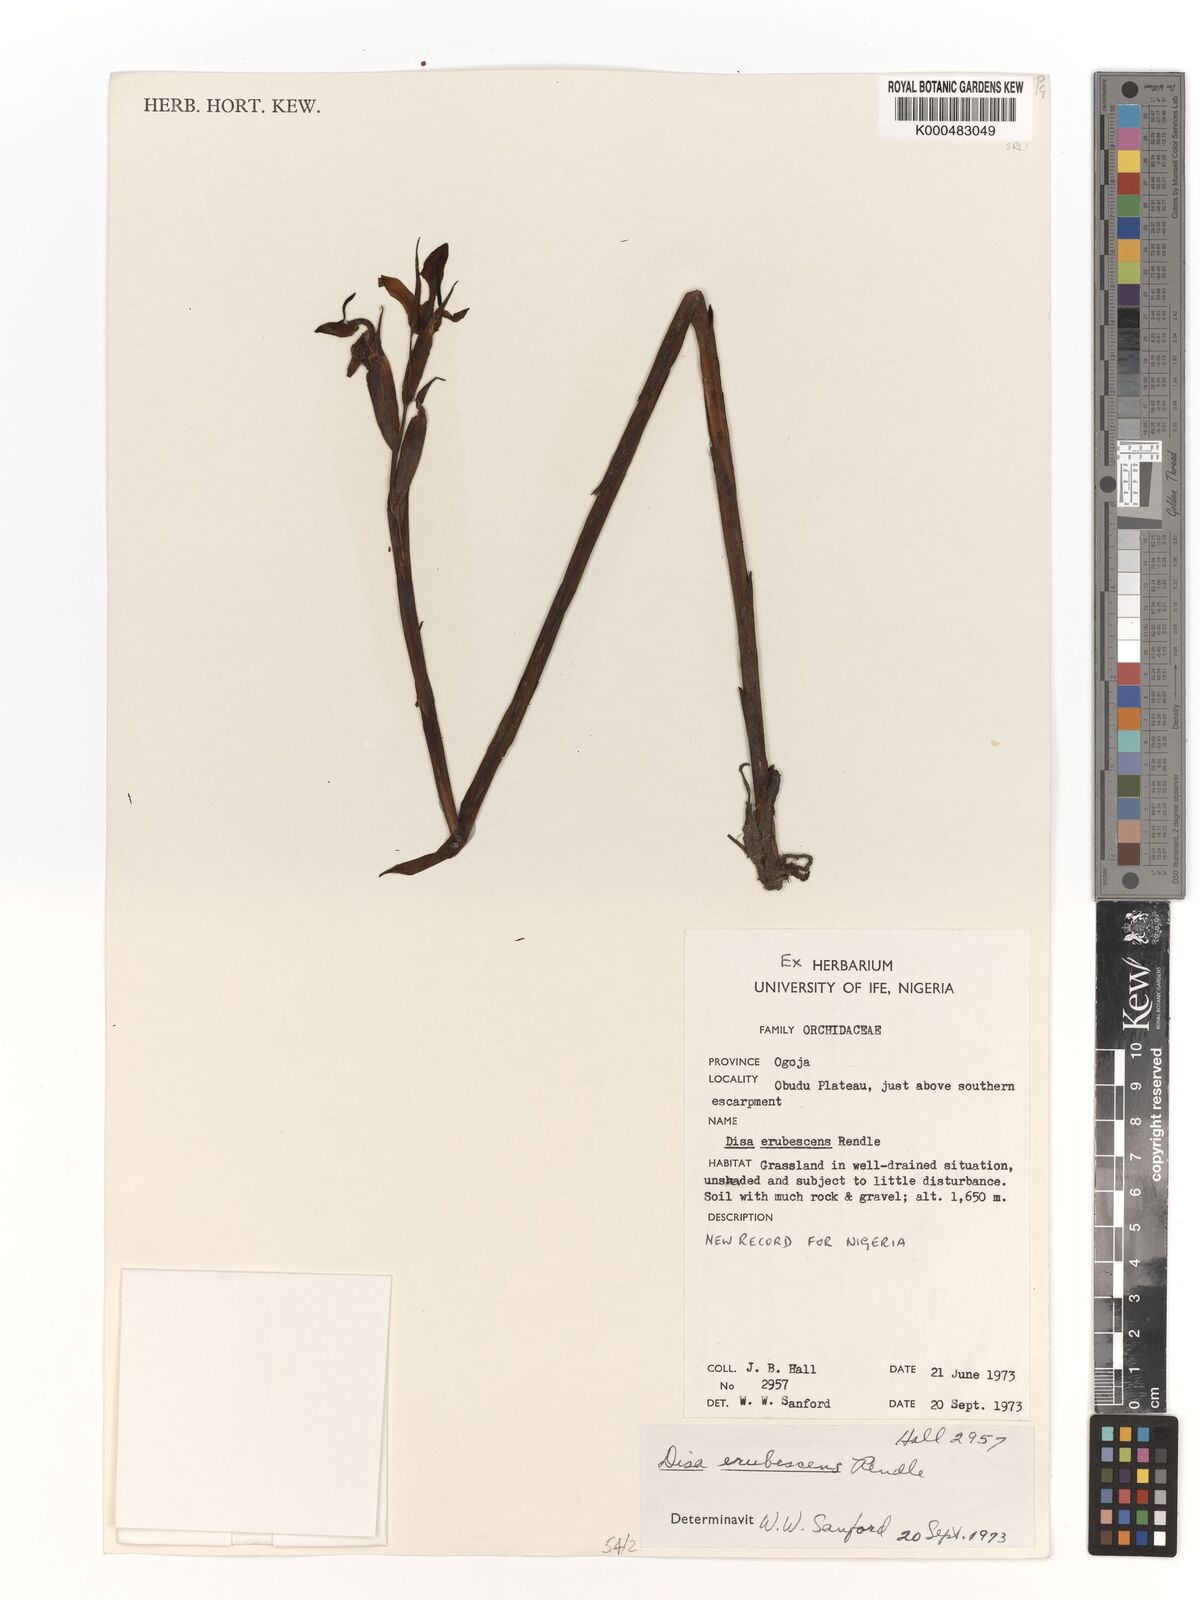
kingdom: Plantae
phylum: Tracheophyta
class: Liliopsida
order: Asparagales
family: Orchidaceae
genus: Disa
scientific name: Disa erubescens
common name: The rose disa
